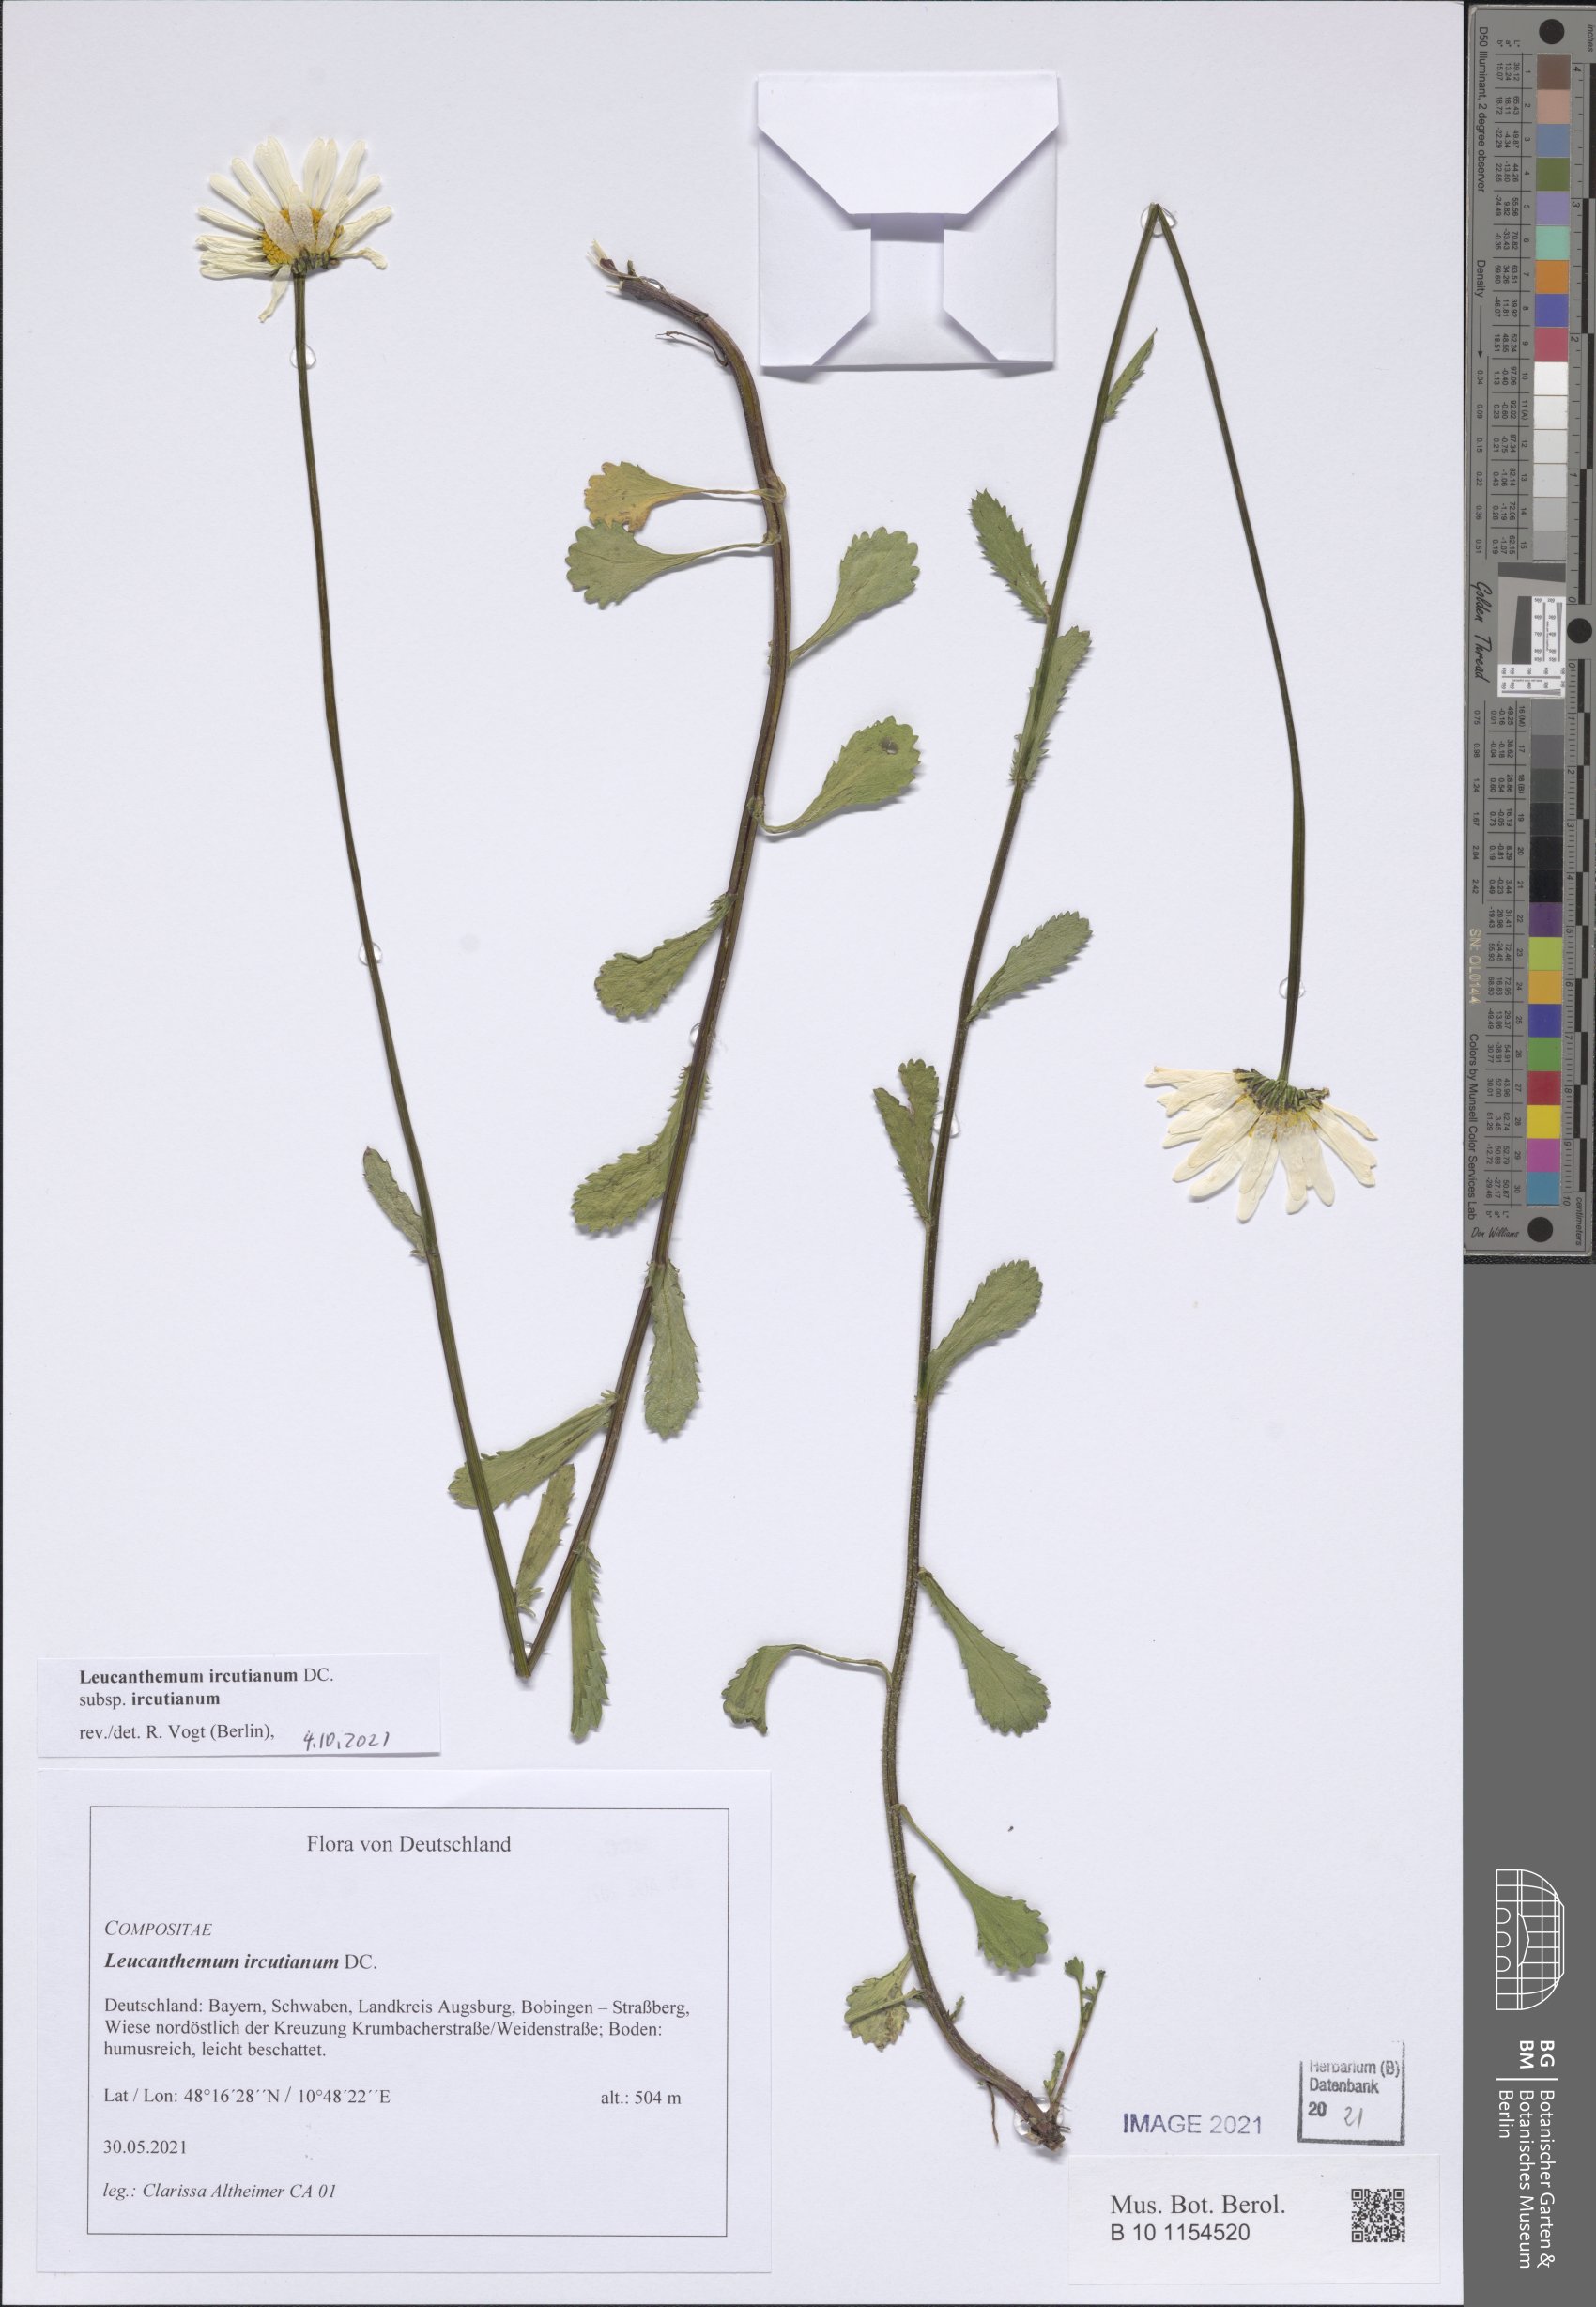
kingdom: Plantae
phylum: Tracheophyta
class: Magnoliopsida
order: Asterales
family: Asteraceae
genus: Leucanthemum
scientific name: Leucanthemum ircutianum
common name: Daisy
